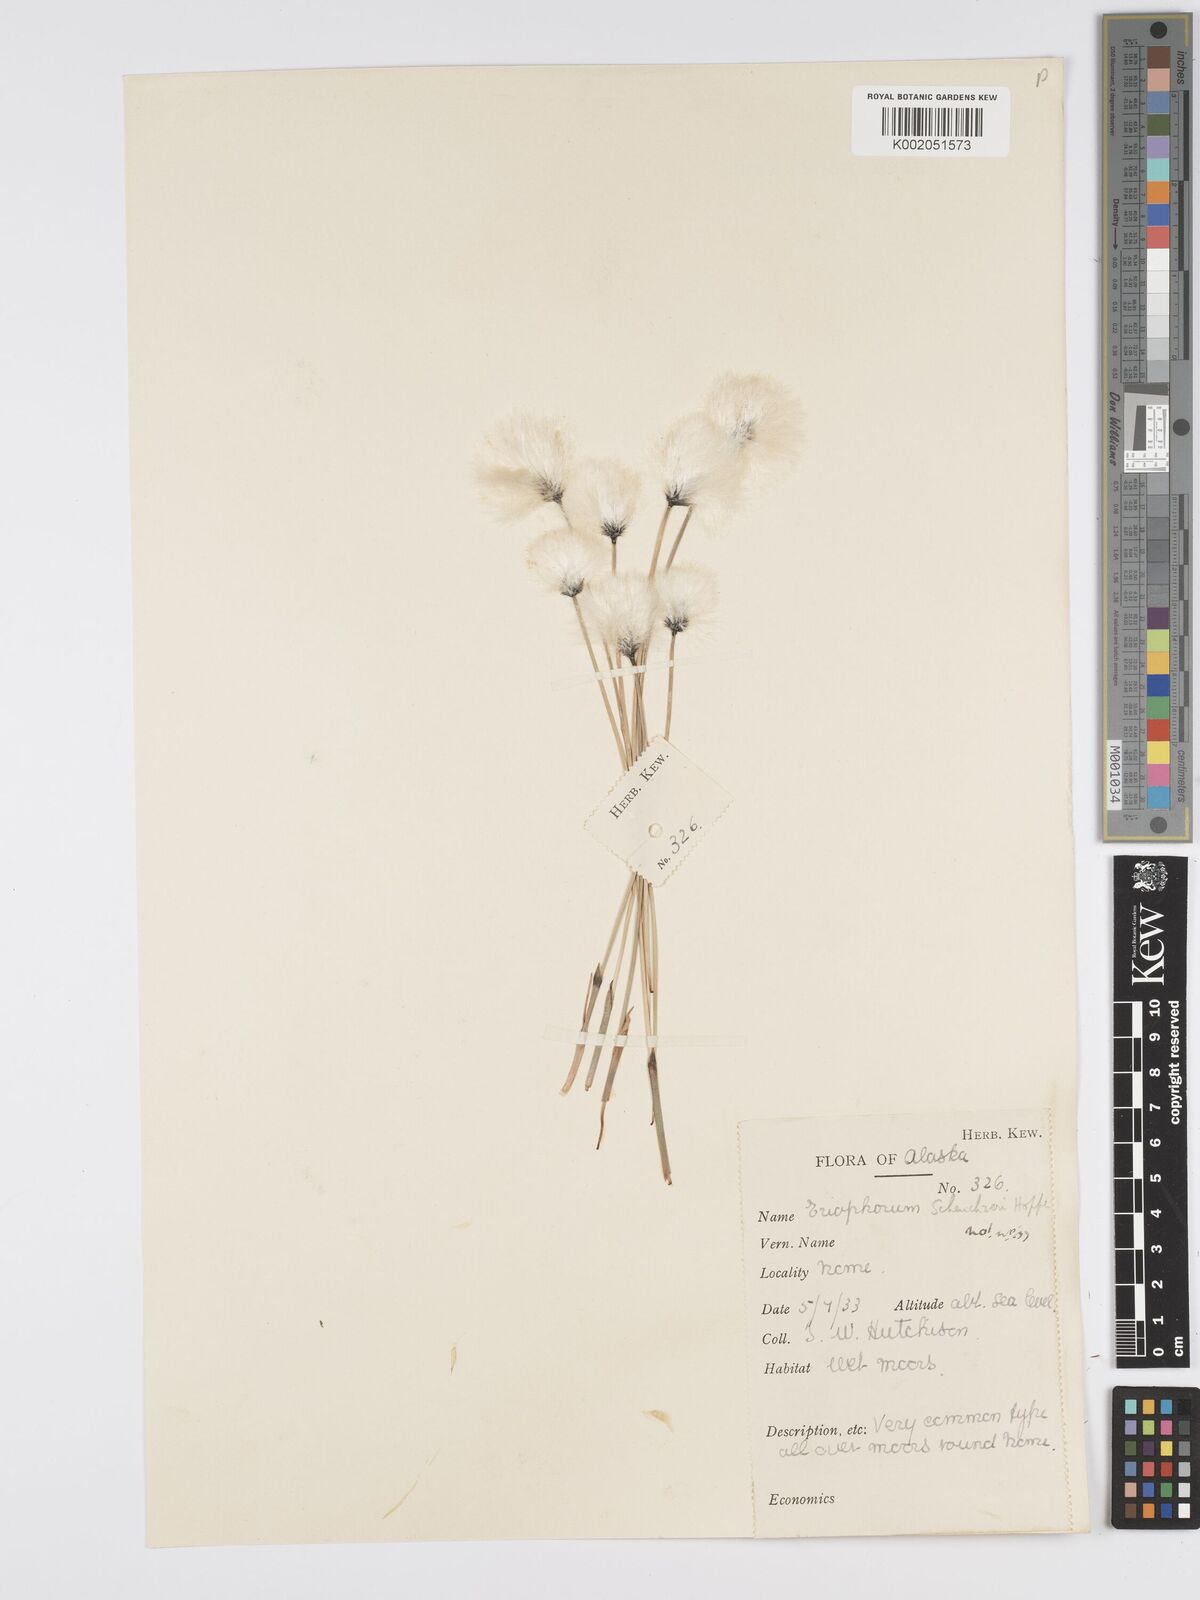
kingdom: Plantae
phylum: Tracheophyta
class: Liliopsida
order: Poales
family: Cyperaceae
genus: Eriophorum
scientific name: Eriophorum scheuchzeri
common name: Scheuchzer's cottongrass
